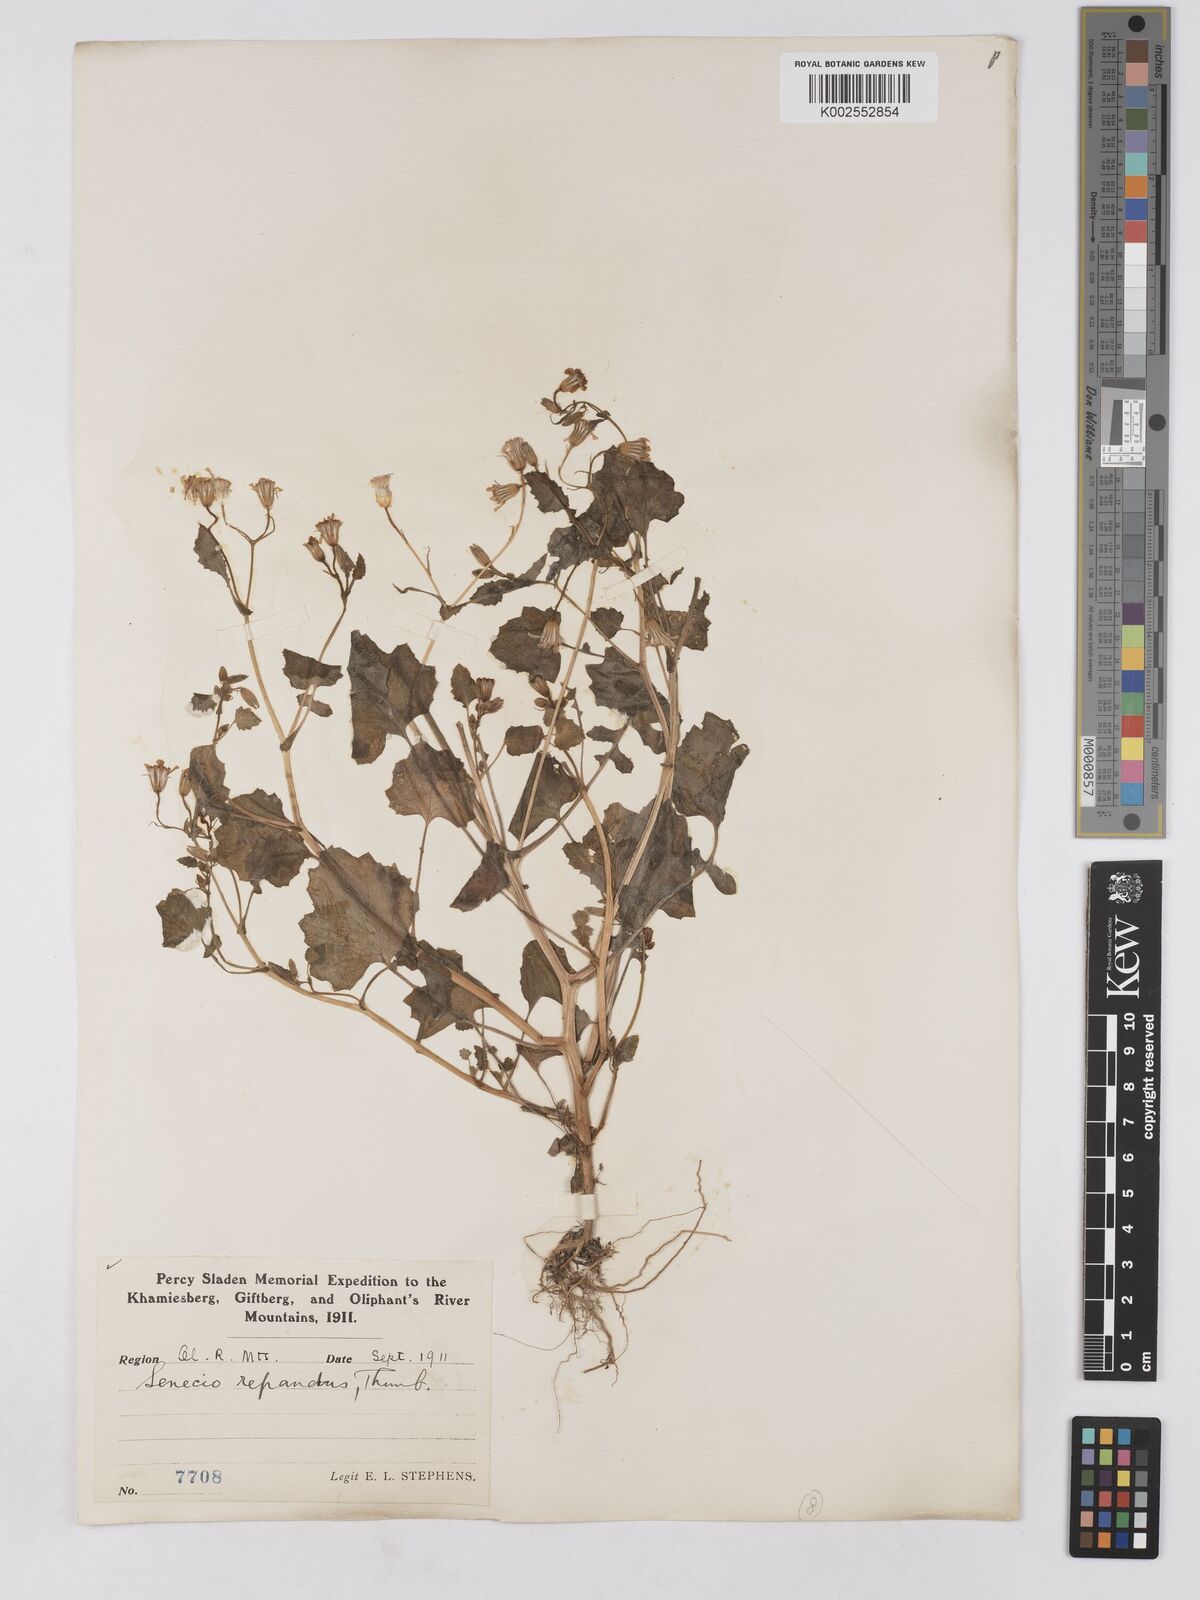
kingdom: Plantae
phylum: Tracheophyta
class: Magnoliopsida
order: Asterales
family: Asteraceae
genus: Senecio
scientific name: Senecio repandus
